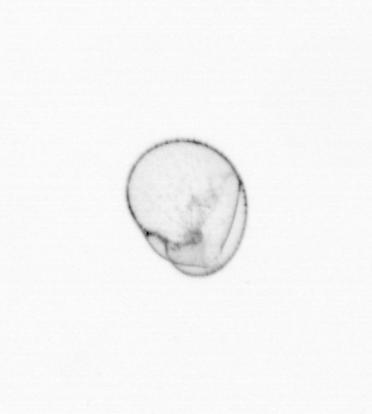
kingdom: Chromista
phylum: Myzozoa
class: Dinophyceae
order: Noctilucales
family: Noctilucaceae
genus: Noctiluca
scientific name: Noctiluca scintillans
